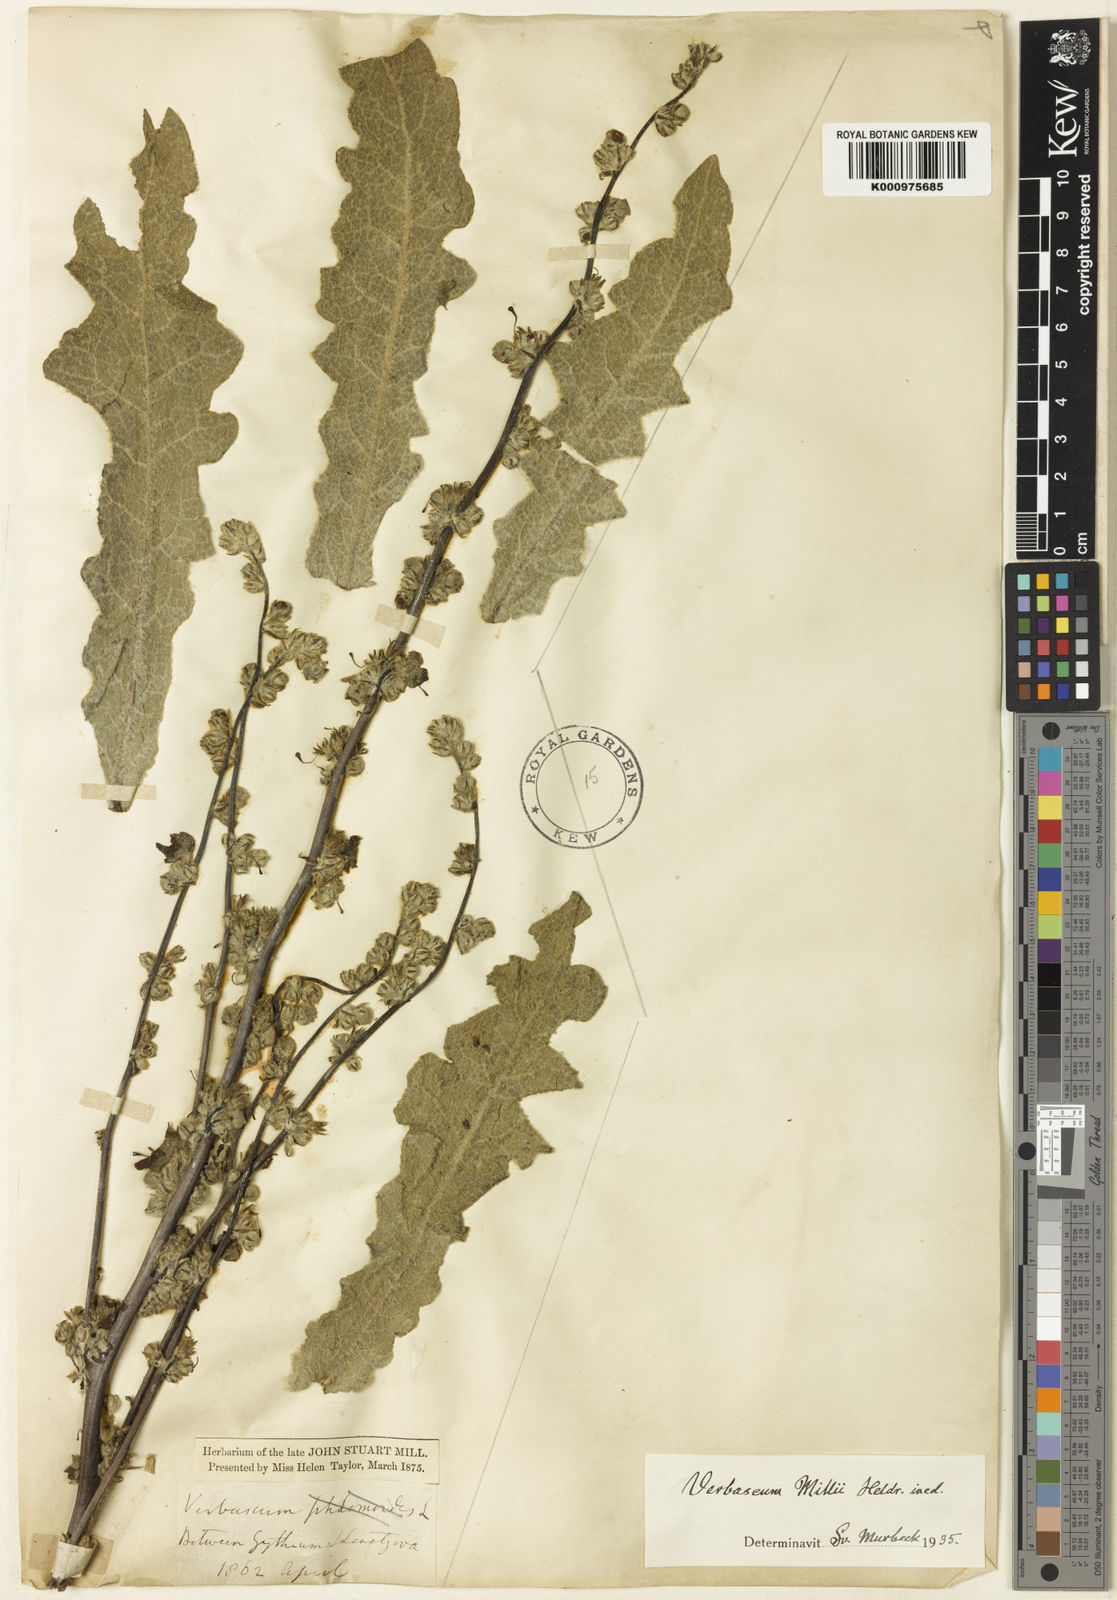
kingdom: Plantae
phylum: Tracheophyta
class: Magnoliopsida
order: Lamiales
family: Scrophulariaceae
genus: Verbascum
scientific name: Verbascum
